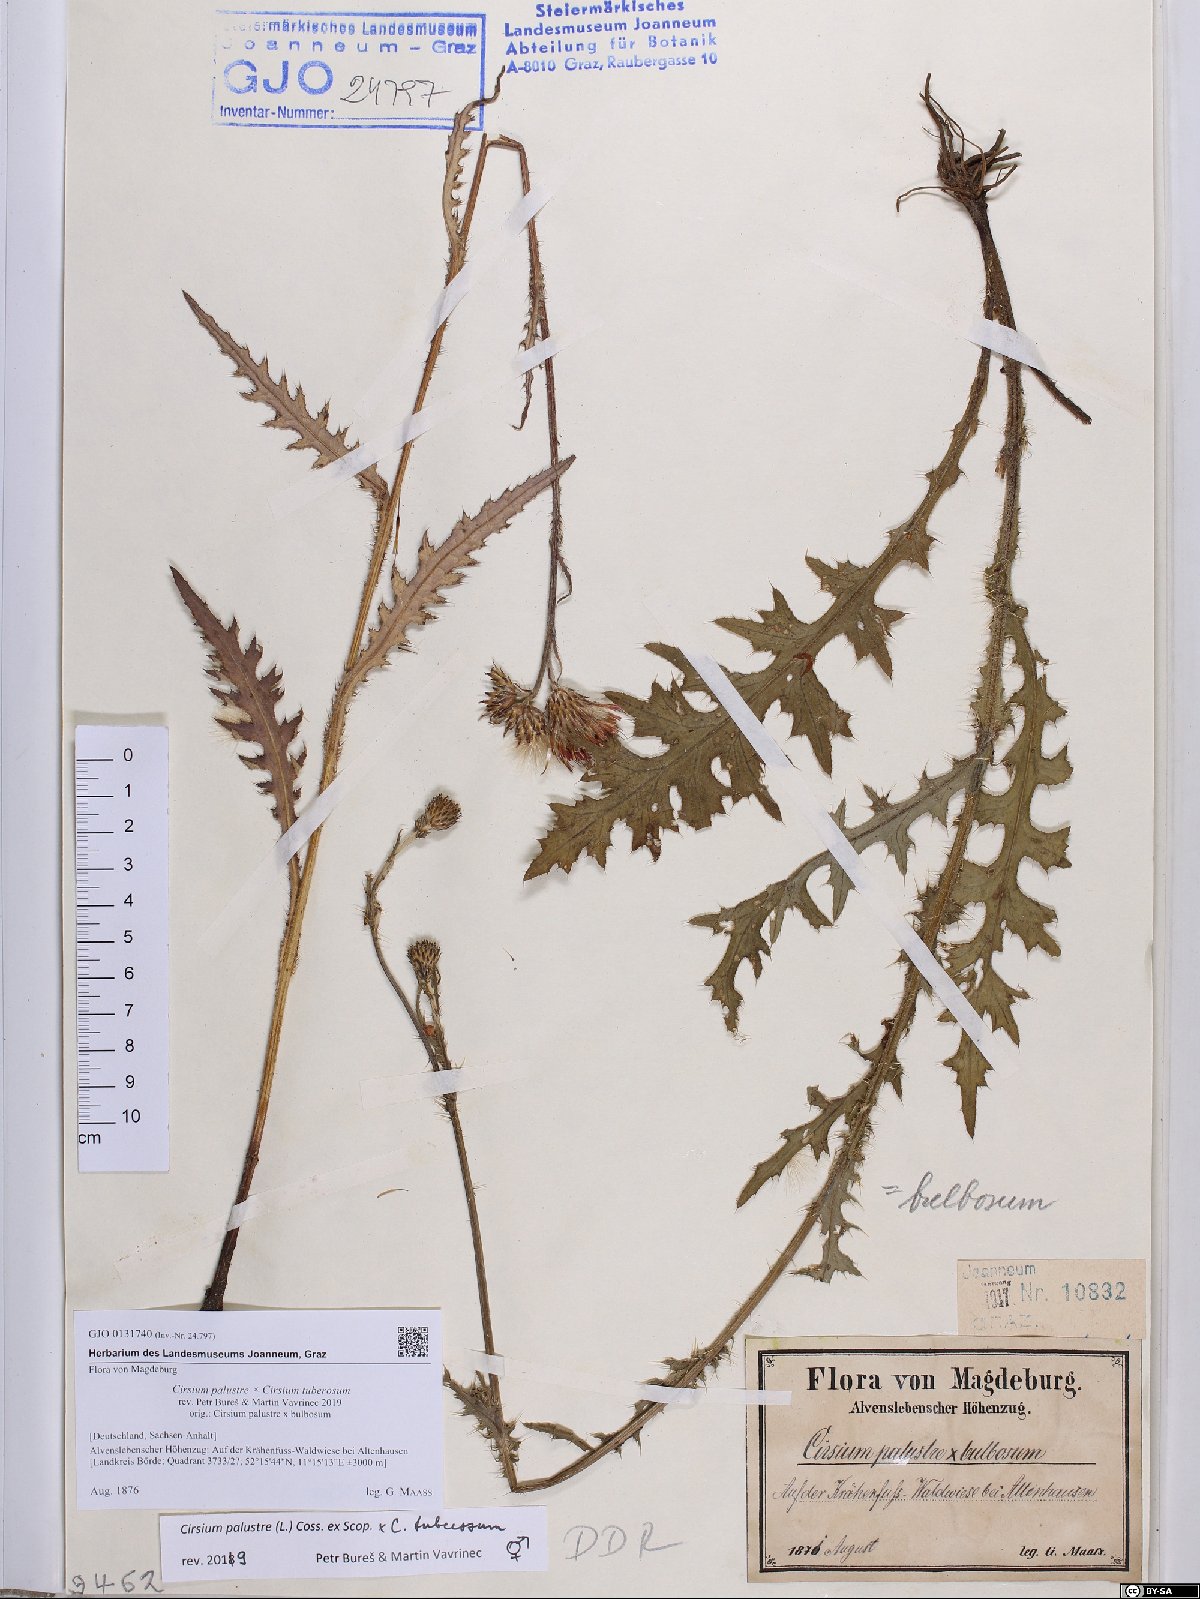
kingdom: Plantae
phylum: Tracheophyta
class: Magnoliopsida
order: Asterales
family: Asteraceae
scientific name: Asteraceae
